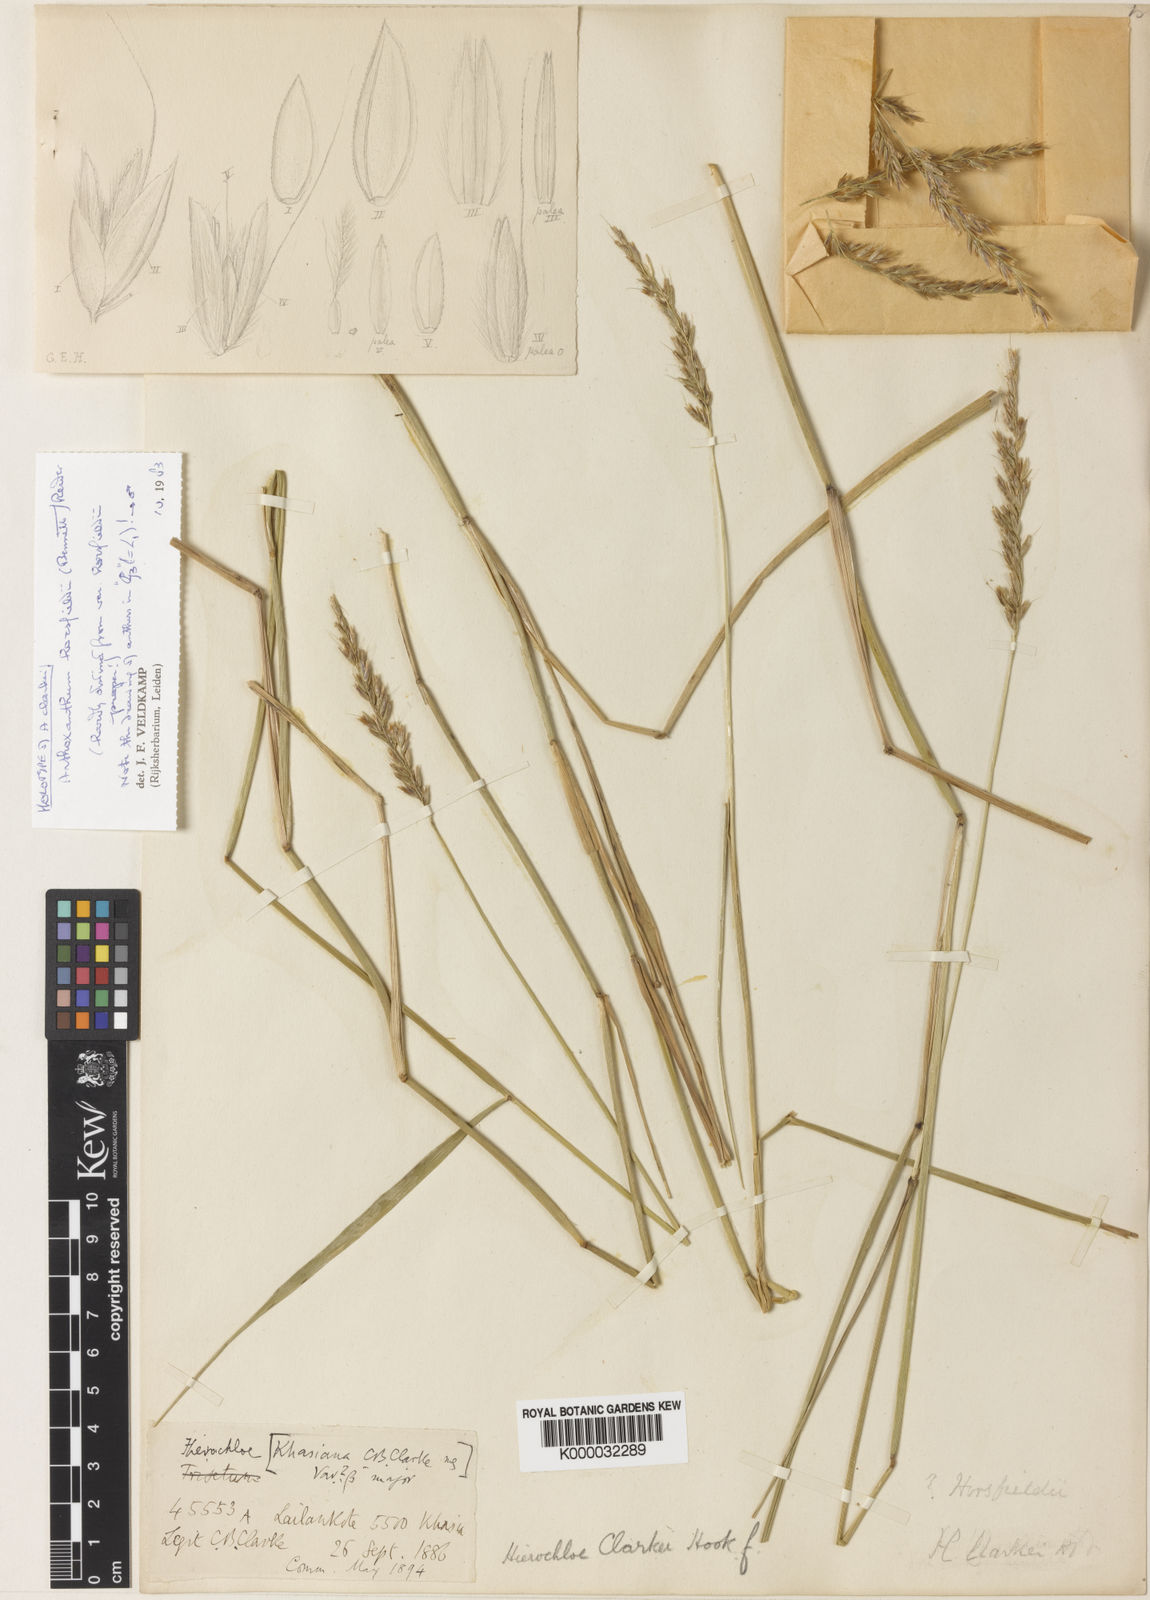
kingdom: Plantae
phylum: Tracheophyta
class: Liliopsida
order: Poales
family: Poaceae
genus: Anthoxanthum
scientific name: Anthoxanthum horsfieldii
